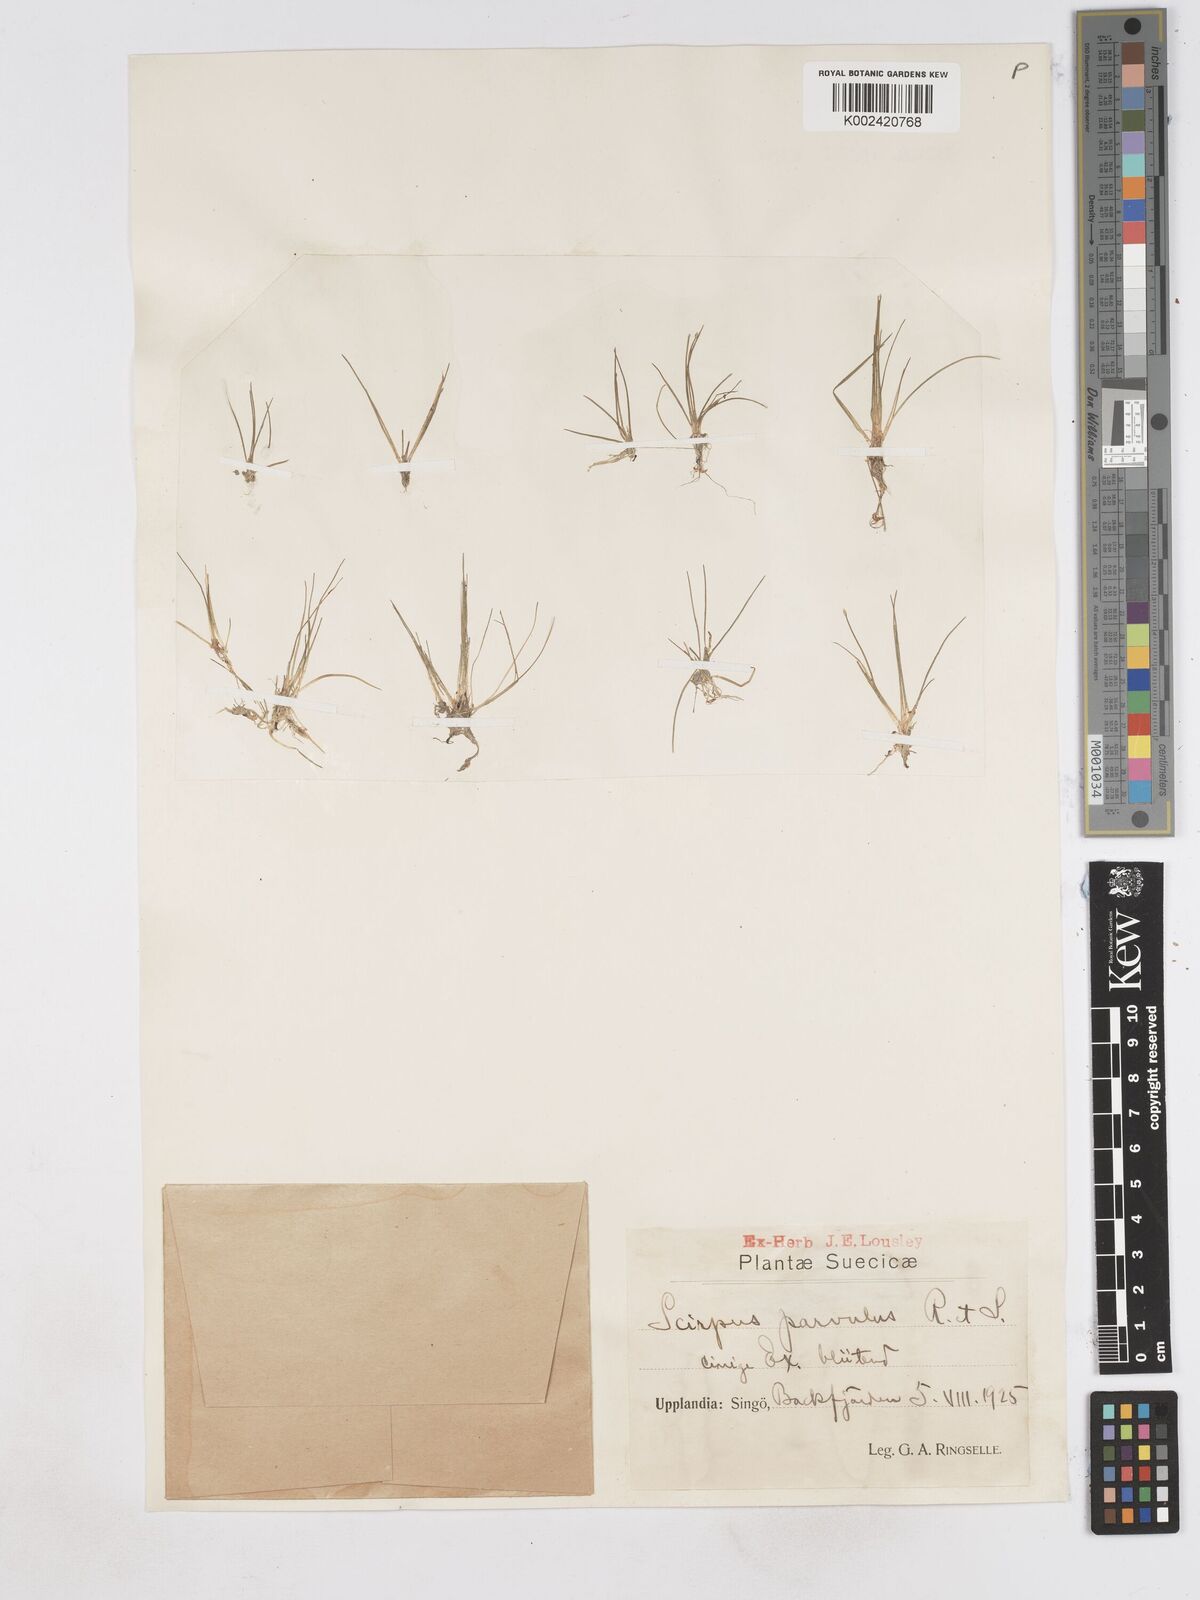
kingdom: Plantae
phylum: Tracheophyta
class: Liliopsida
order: Poales
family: Cyperaceae
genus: Eleocharis
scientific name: Eleocharis parvula
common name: Dwarf spike-rush
